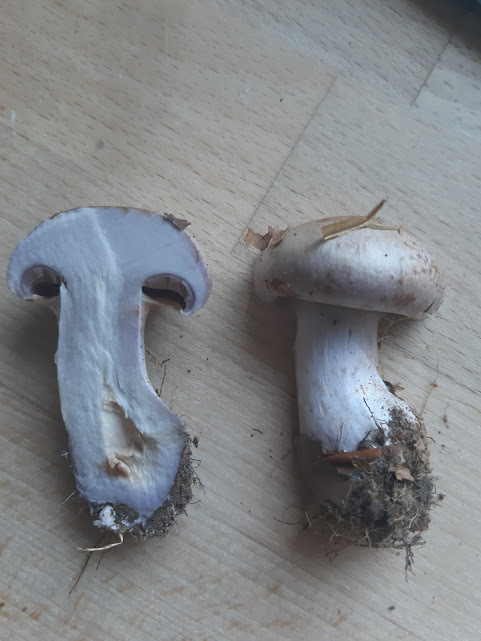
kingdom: Fungi
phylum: Basidiomycota
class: Agaricomycetes
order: Agaricales
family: Cortinariaceae
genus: Cortinarius
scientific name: Cortinarius
